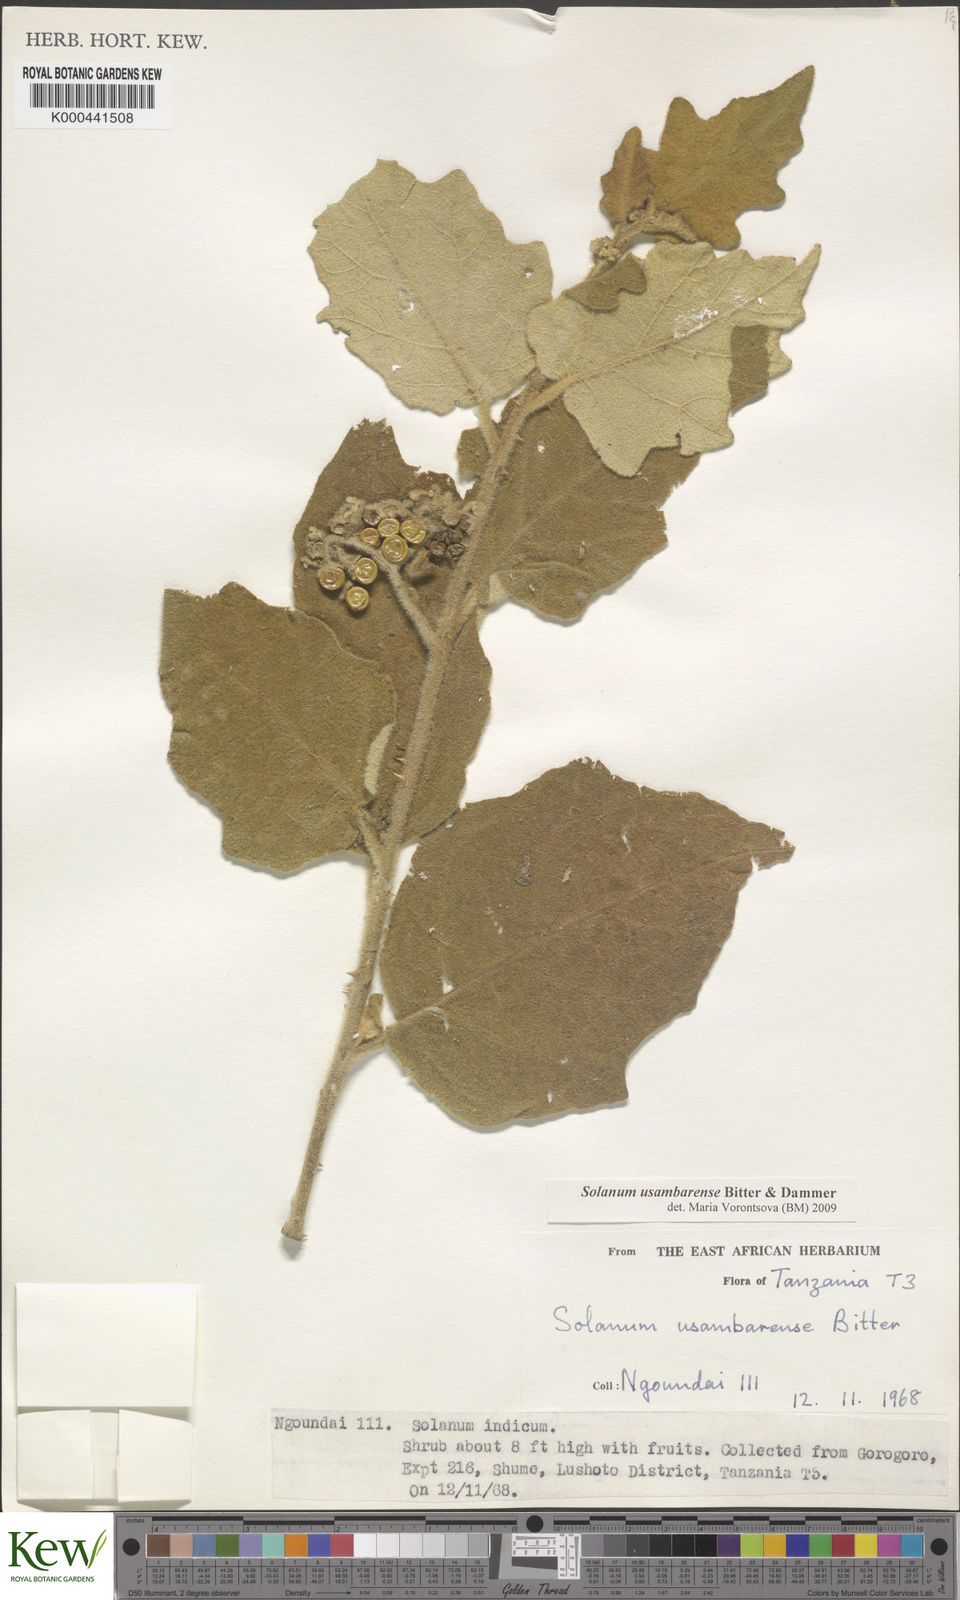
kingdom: Plantae
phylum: Tracheophyta
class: Magnoliopsida
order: Solanales
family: Solanaceae
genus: Solanum
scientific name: Solanum usambarense
